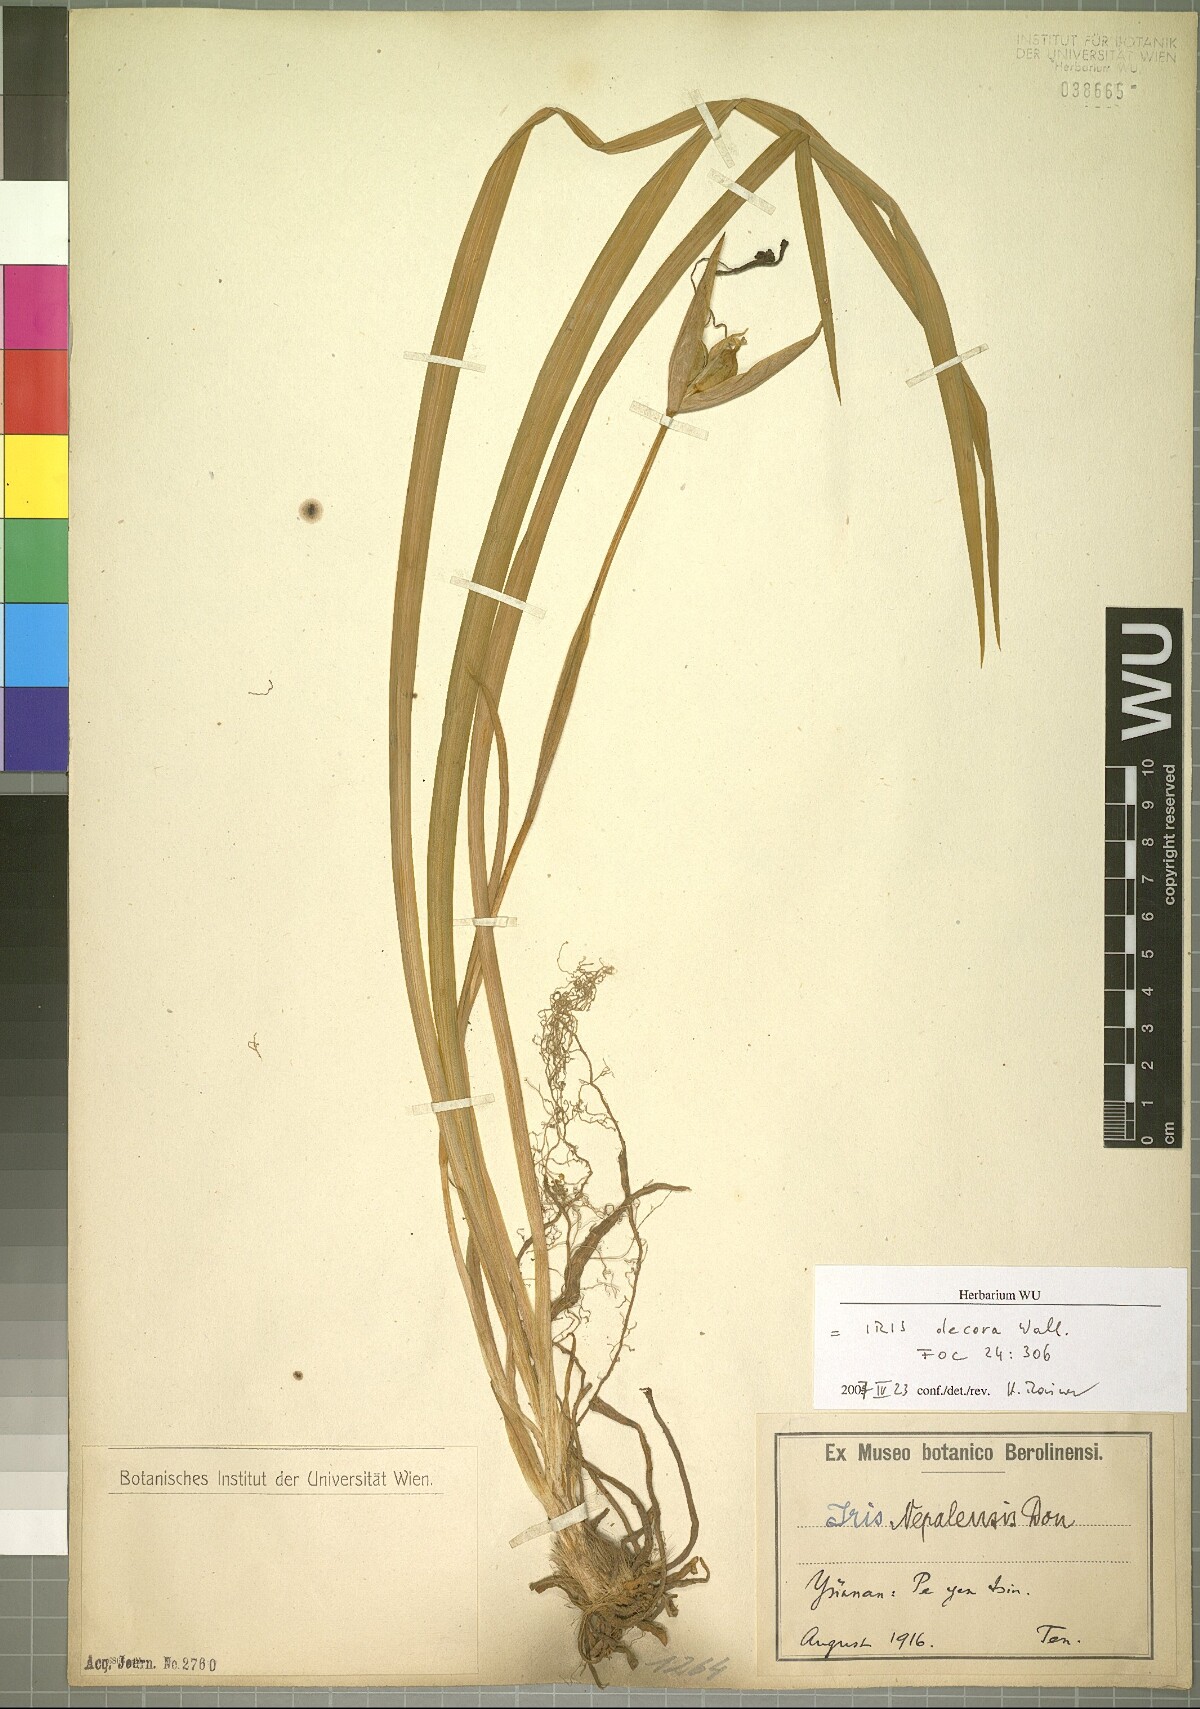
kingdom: Plantae
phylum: Tracheophyta
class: Liliopsida
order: Asparagales
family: Iridaceae
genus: Iris
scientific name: Iris decora
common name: Nepal iris
